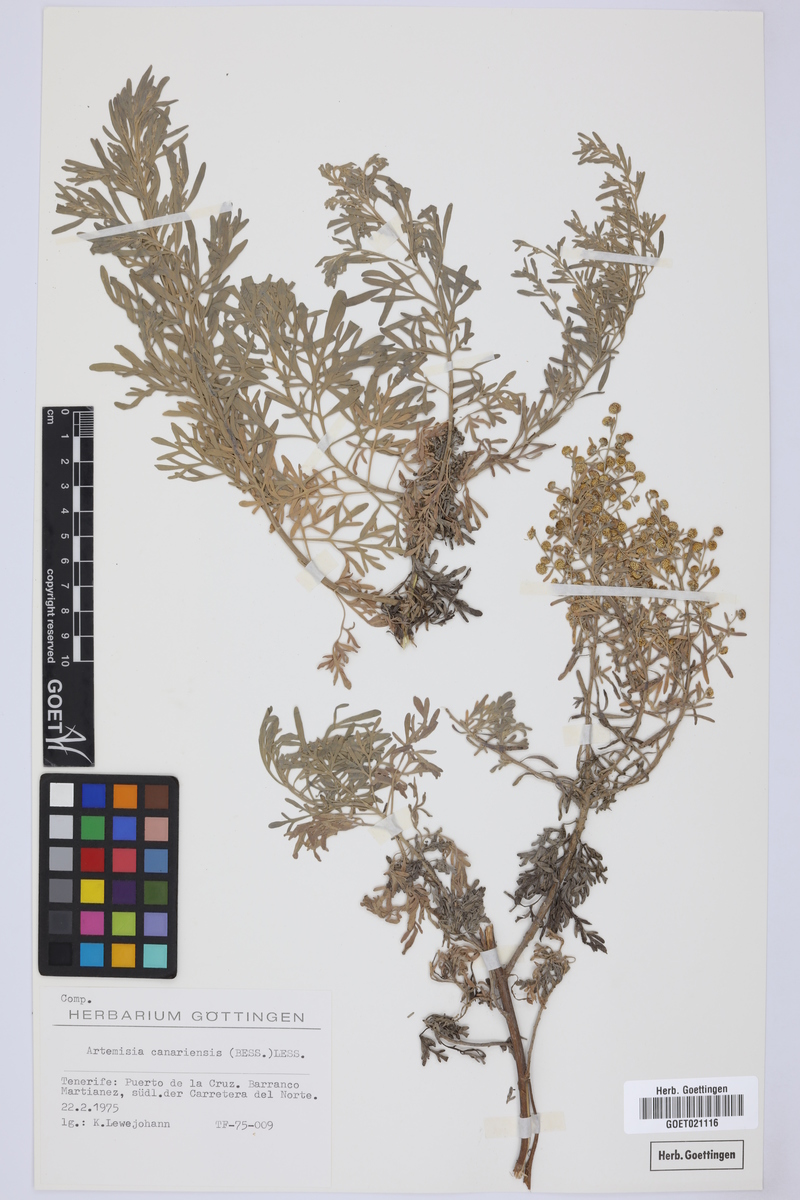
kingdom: Plantae
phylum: Tracheophyta
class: Magnoliopsida
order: Asterales
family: Asteraceae
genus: Artemisia
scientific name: Artemisia thuscula
